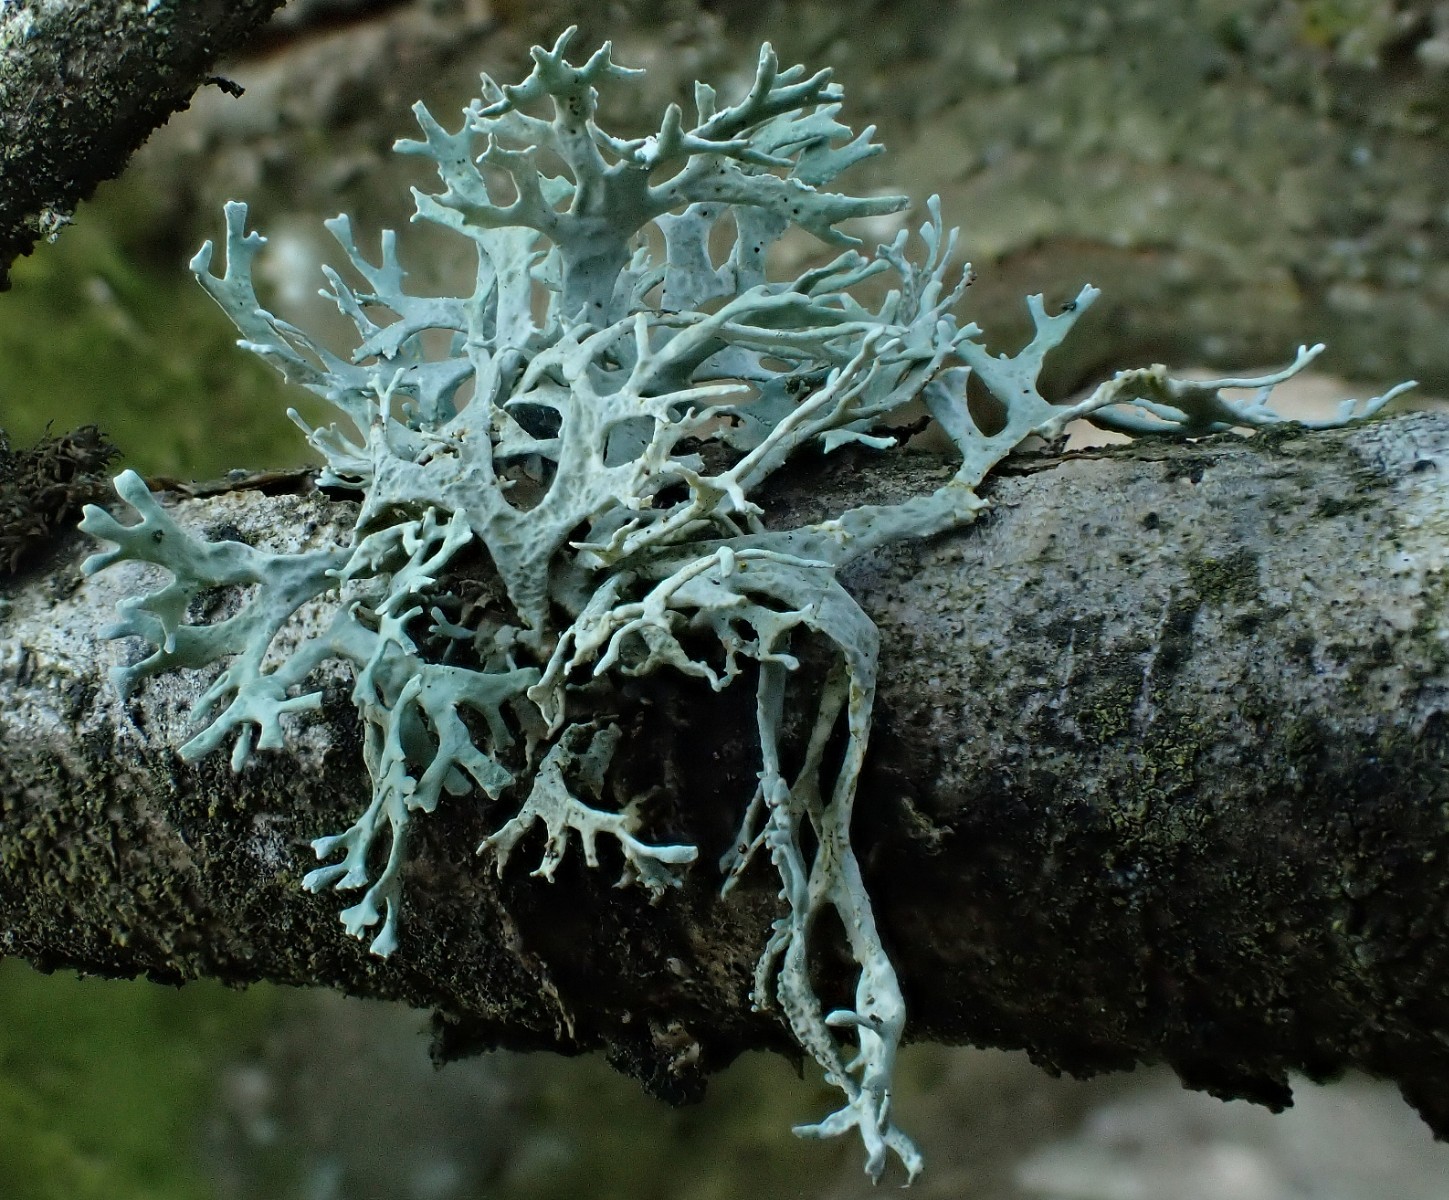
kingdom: Fungi
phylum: Ascomycota
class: Lecanoromycetes
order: Lecanorales
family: Parmeliaceae
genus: Evernia
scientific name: Evernia prunastri
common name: almindelig slåenlav
